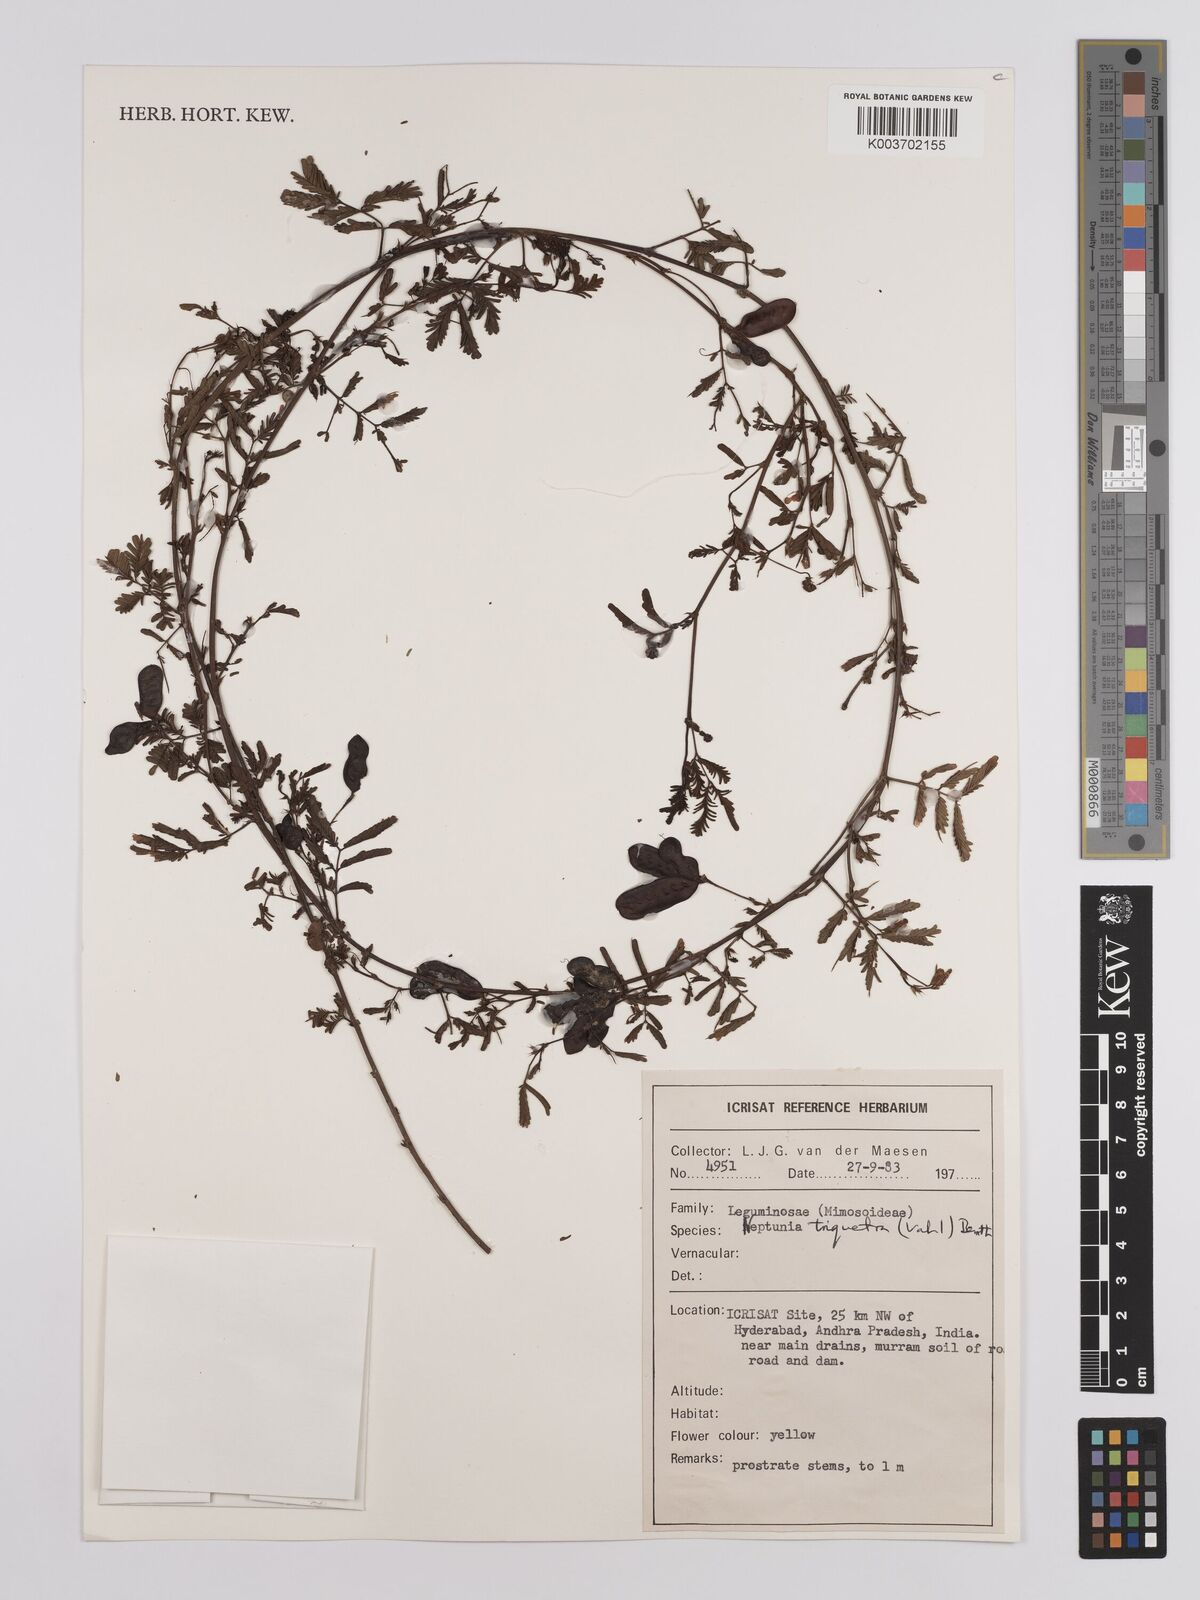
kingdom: Plantae
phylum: Tracheophyta
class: Magnoliopsida
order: Fabales
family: Fabaceae
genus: Neptunia
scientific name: Neptunia triquetra
